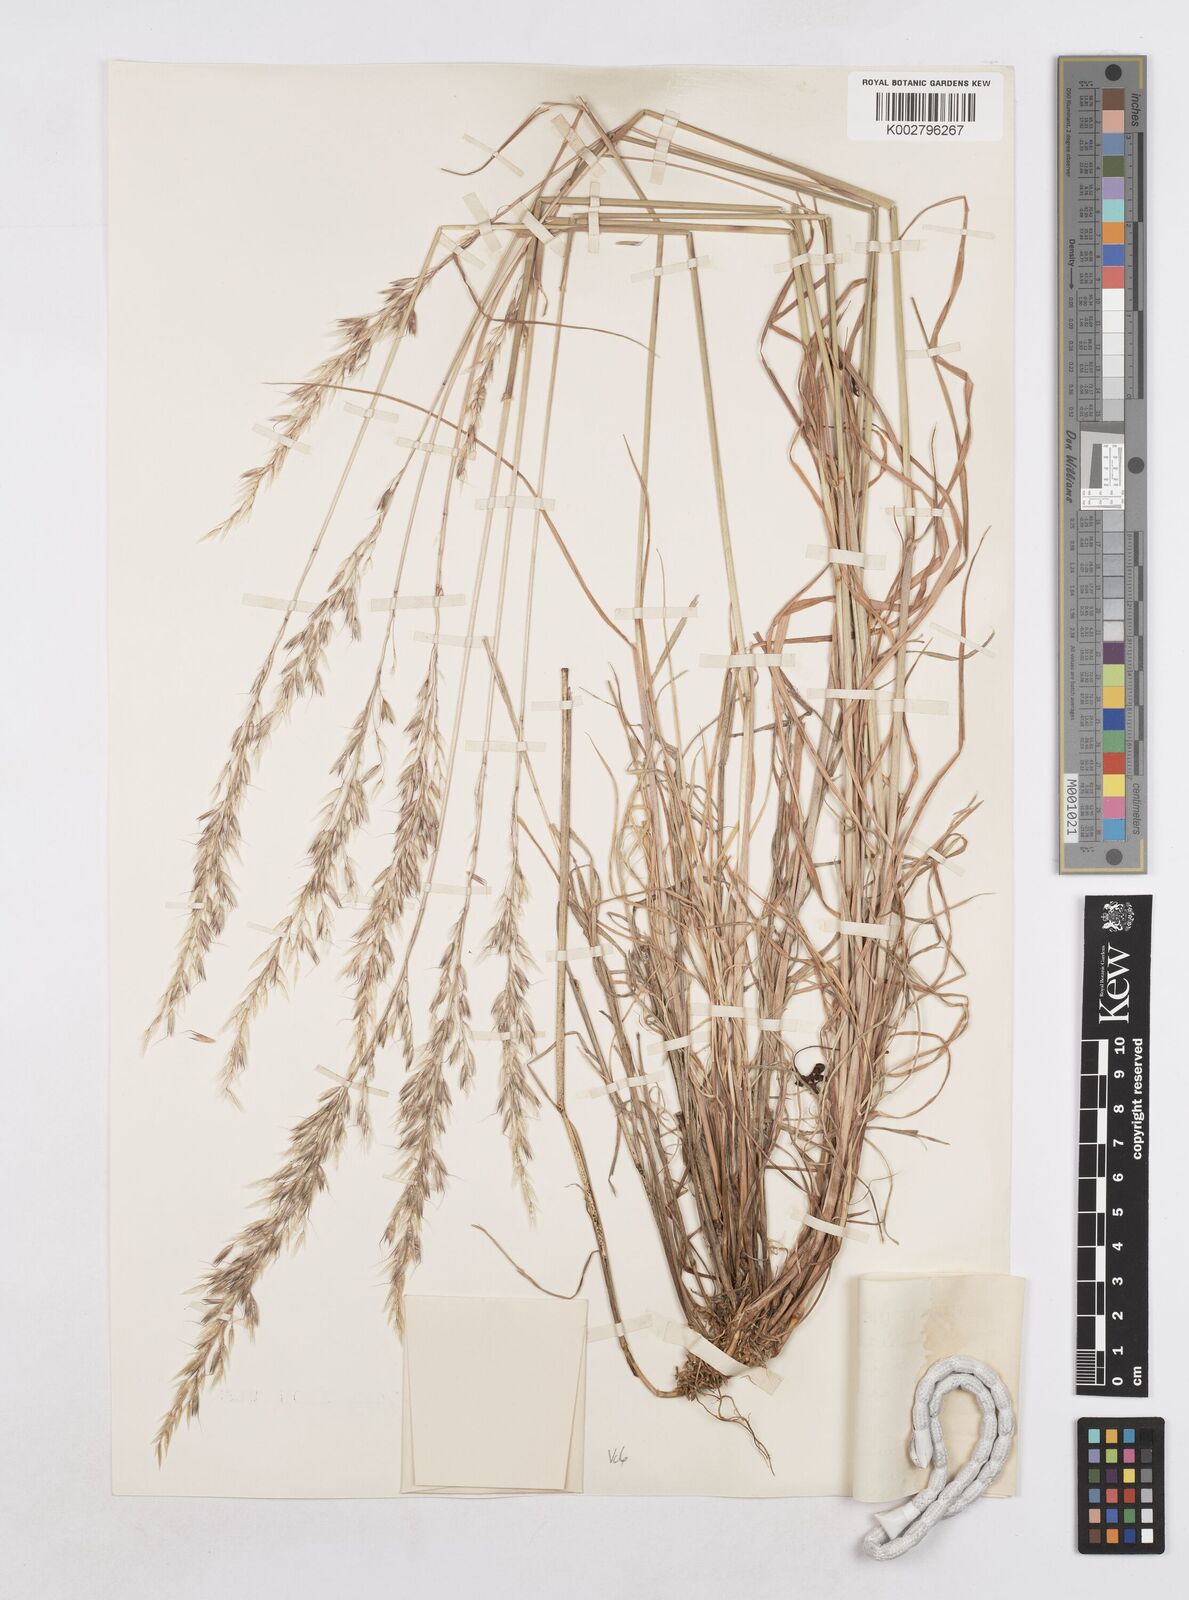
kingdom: Plantae
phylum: Tracheophyta
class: Liliopsida
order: Poales
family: Poaceae
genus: Arrhenatherum
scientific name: Arrhenatherum elatius
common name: Tall oatgrass
